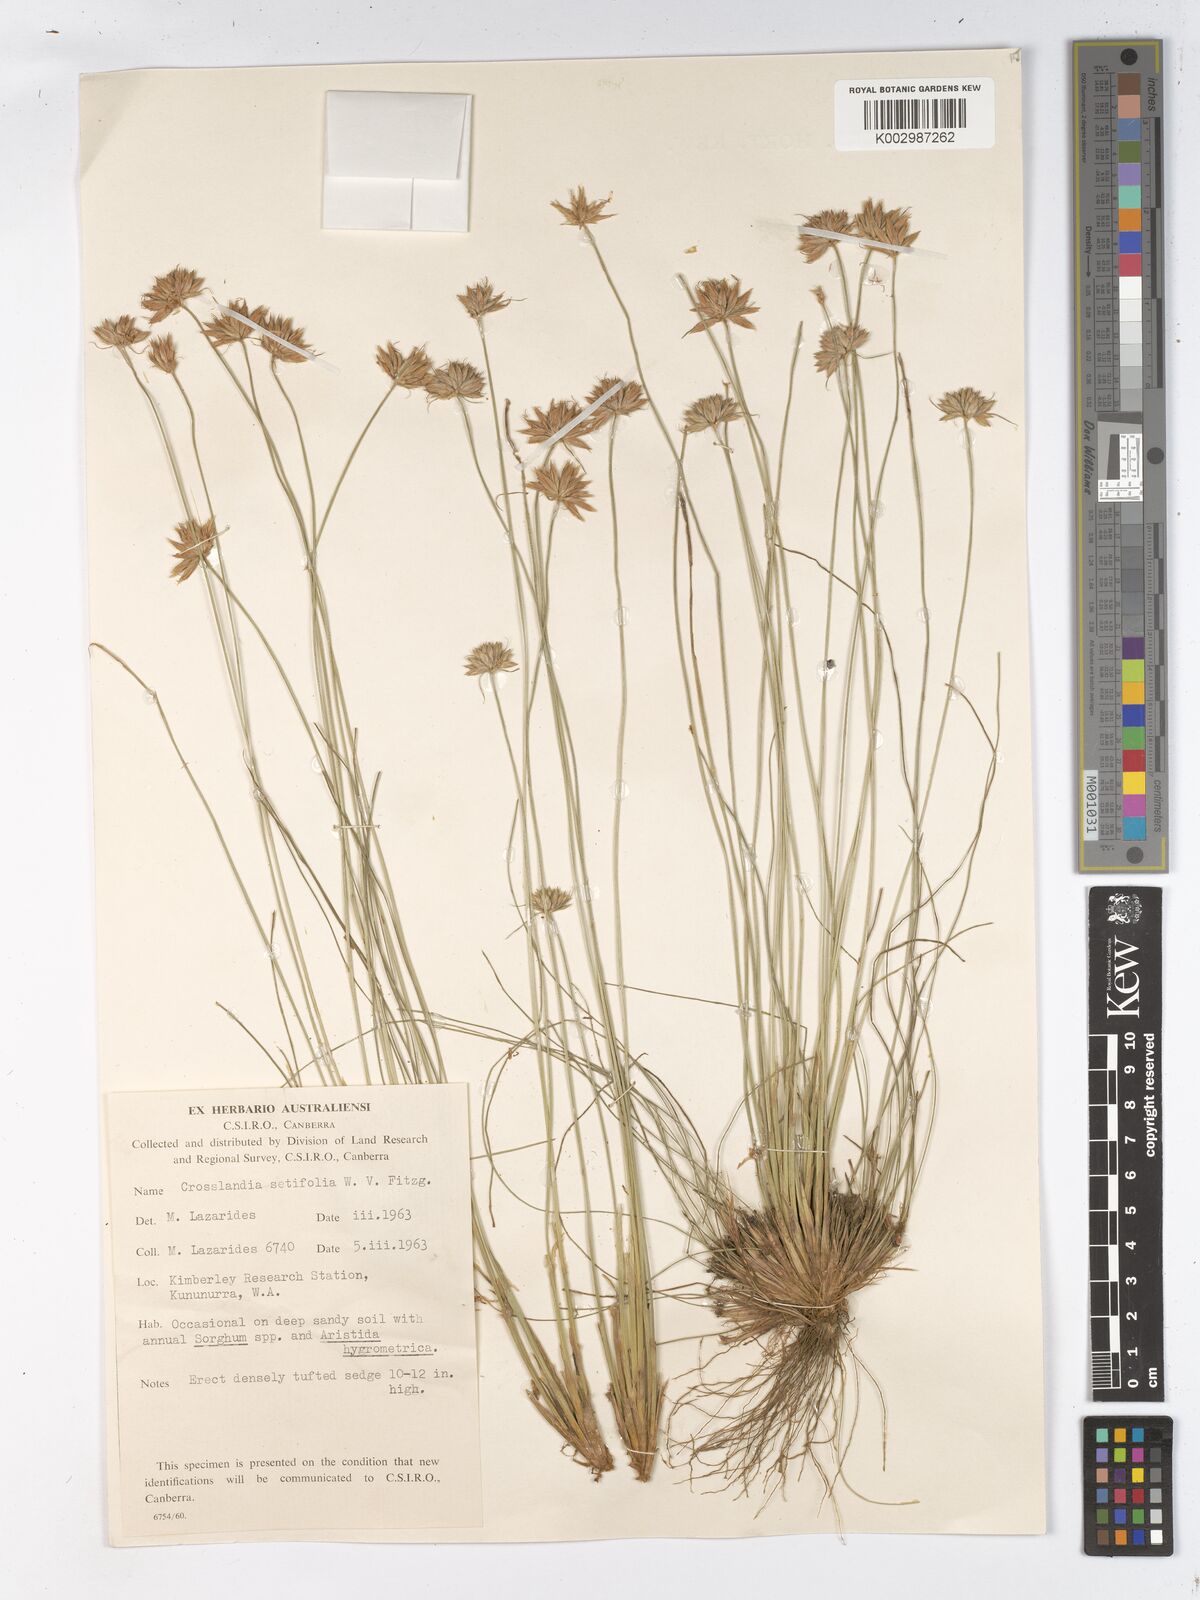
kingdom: Plantae
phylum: Tracheophyta
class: Liliopsida
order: Poales
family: Cyperaceae
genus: Fimbristylis
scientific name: Fimbristylis crosslandii
